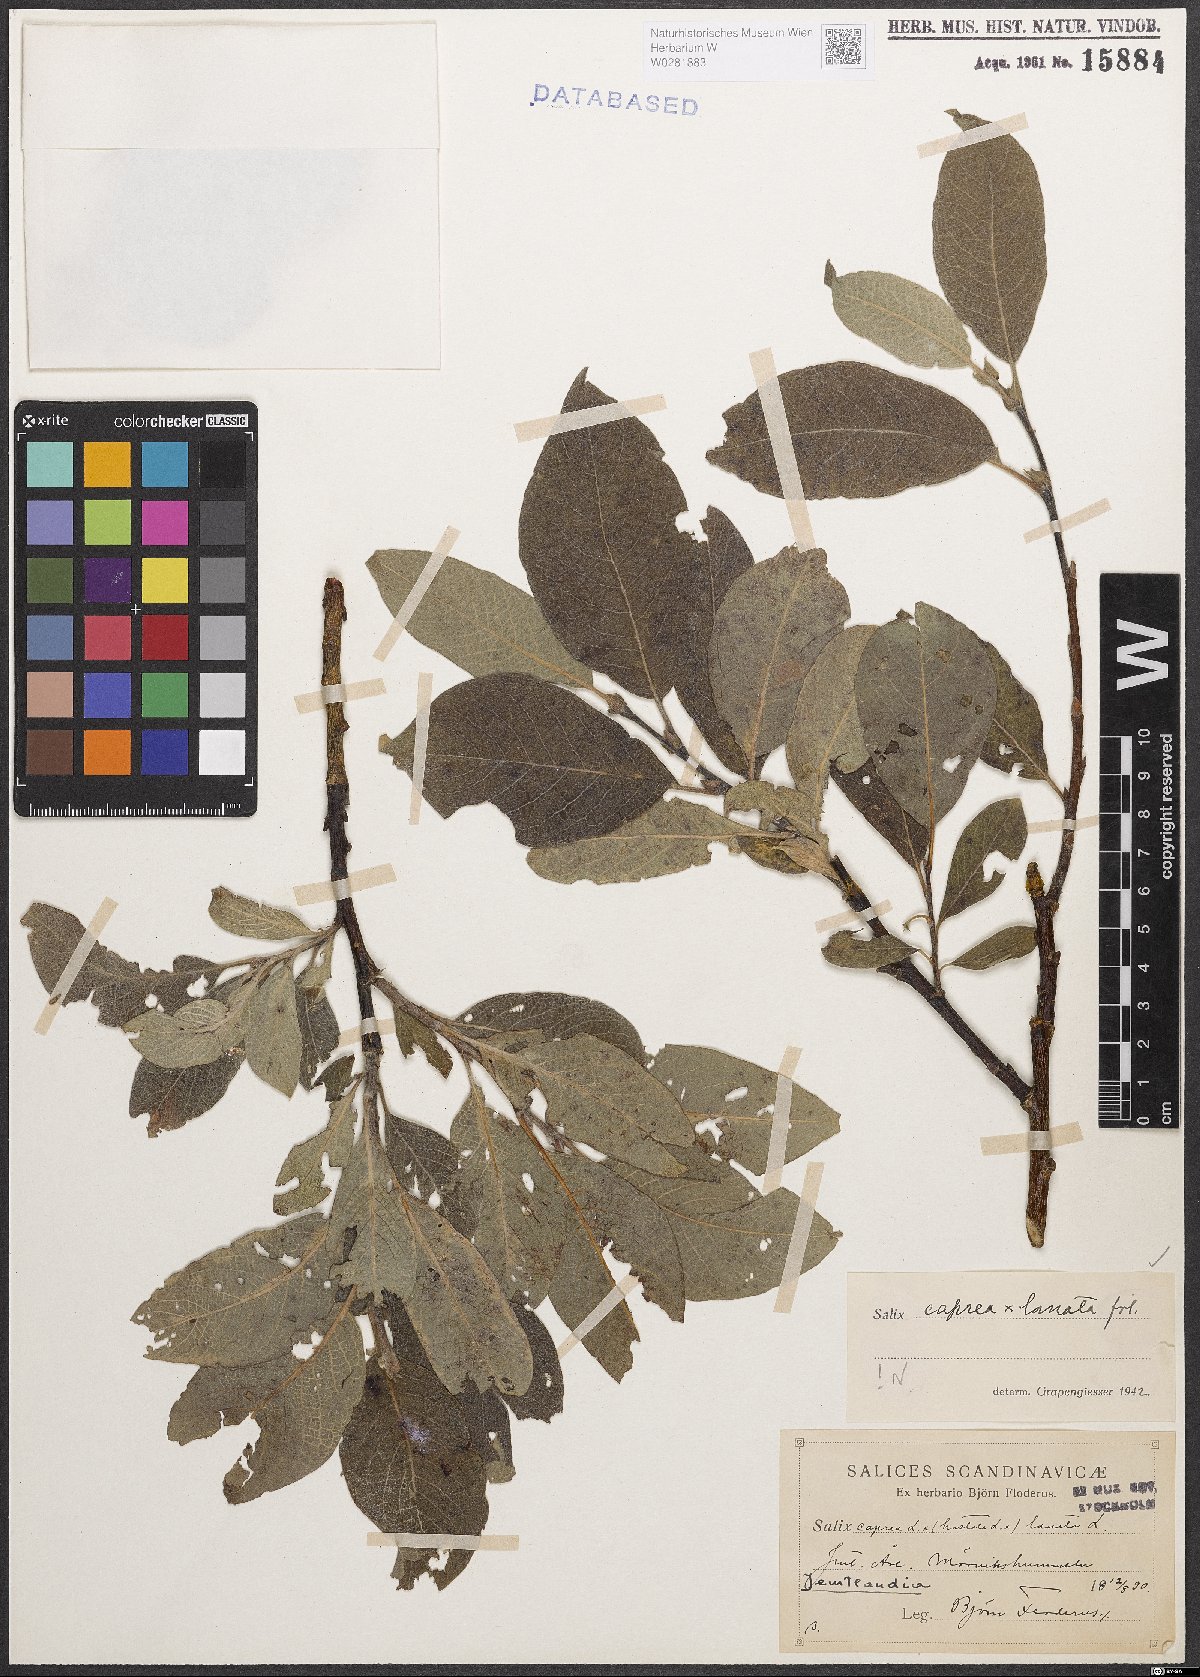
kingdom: Plantae
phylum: Tracheophyta
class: Magnoliopsida
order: Malpighiales
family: Salicaceae
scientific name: Salicaceae
